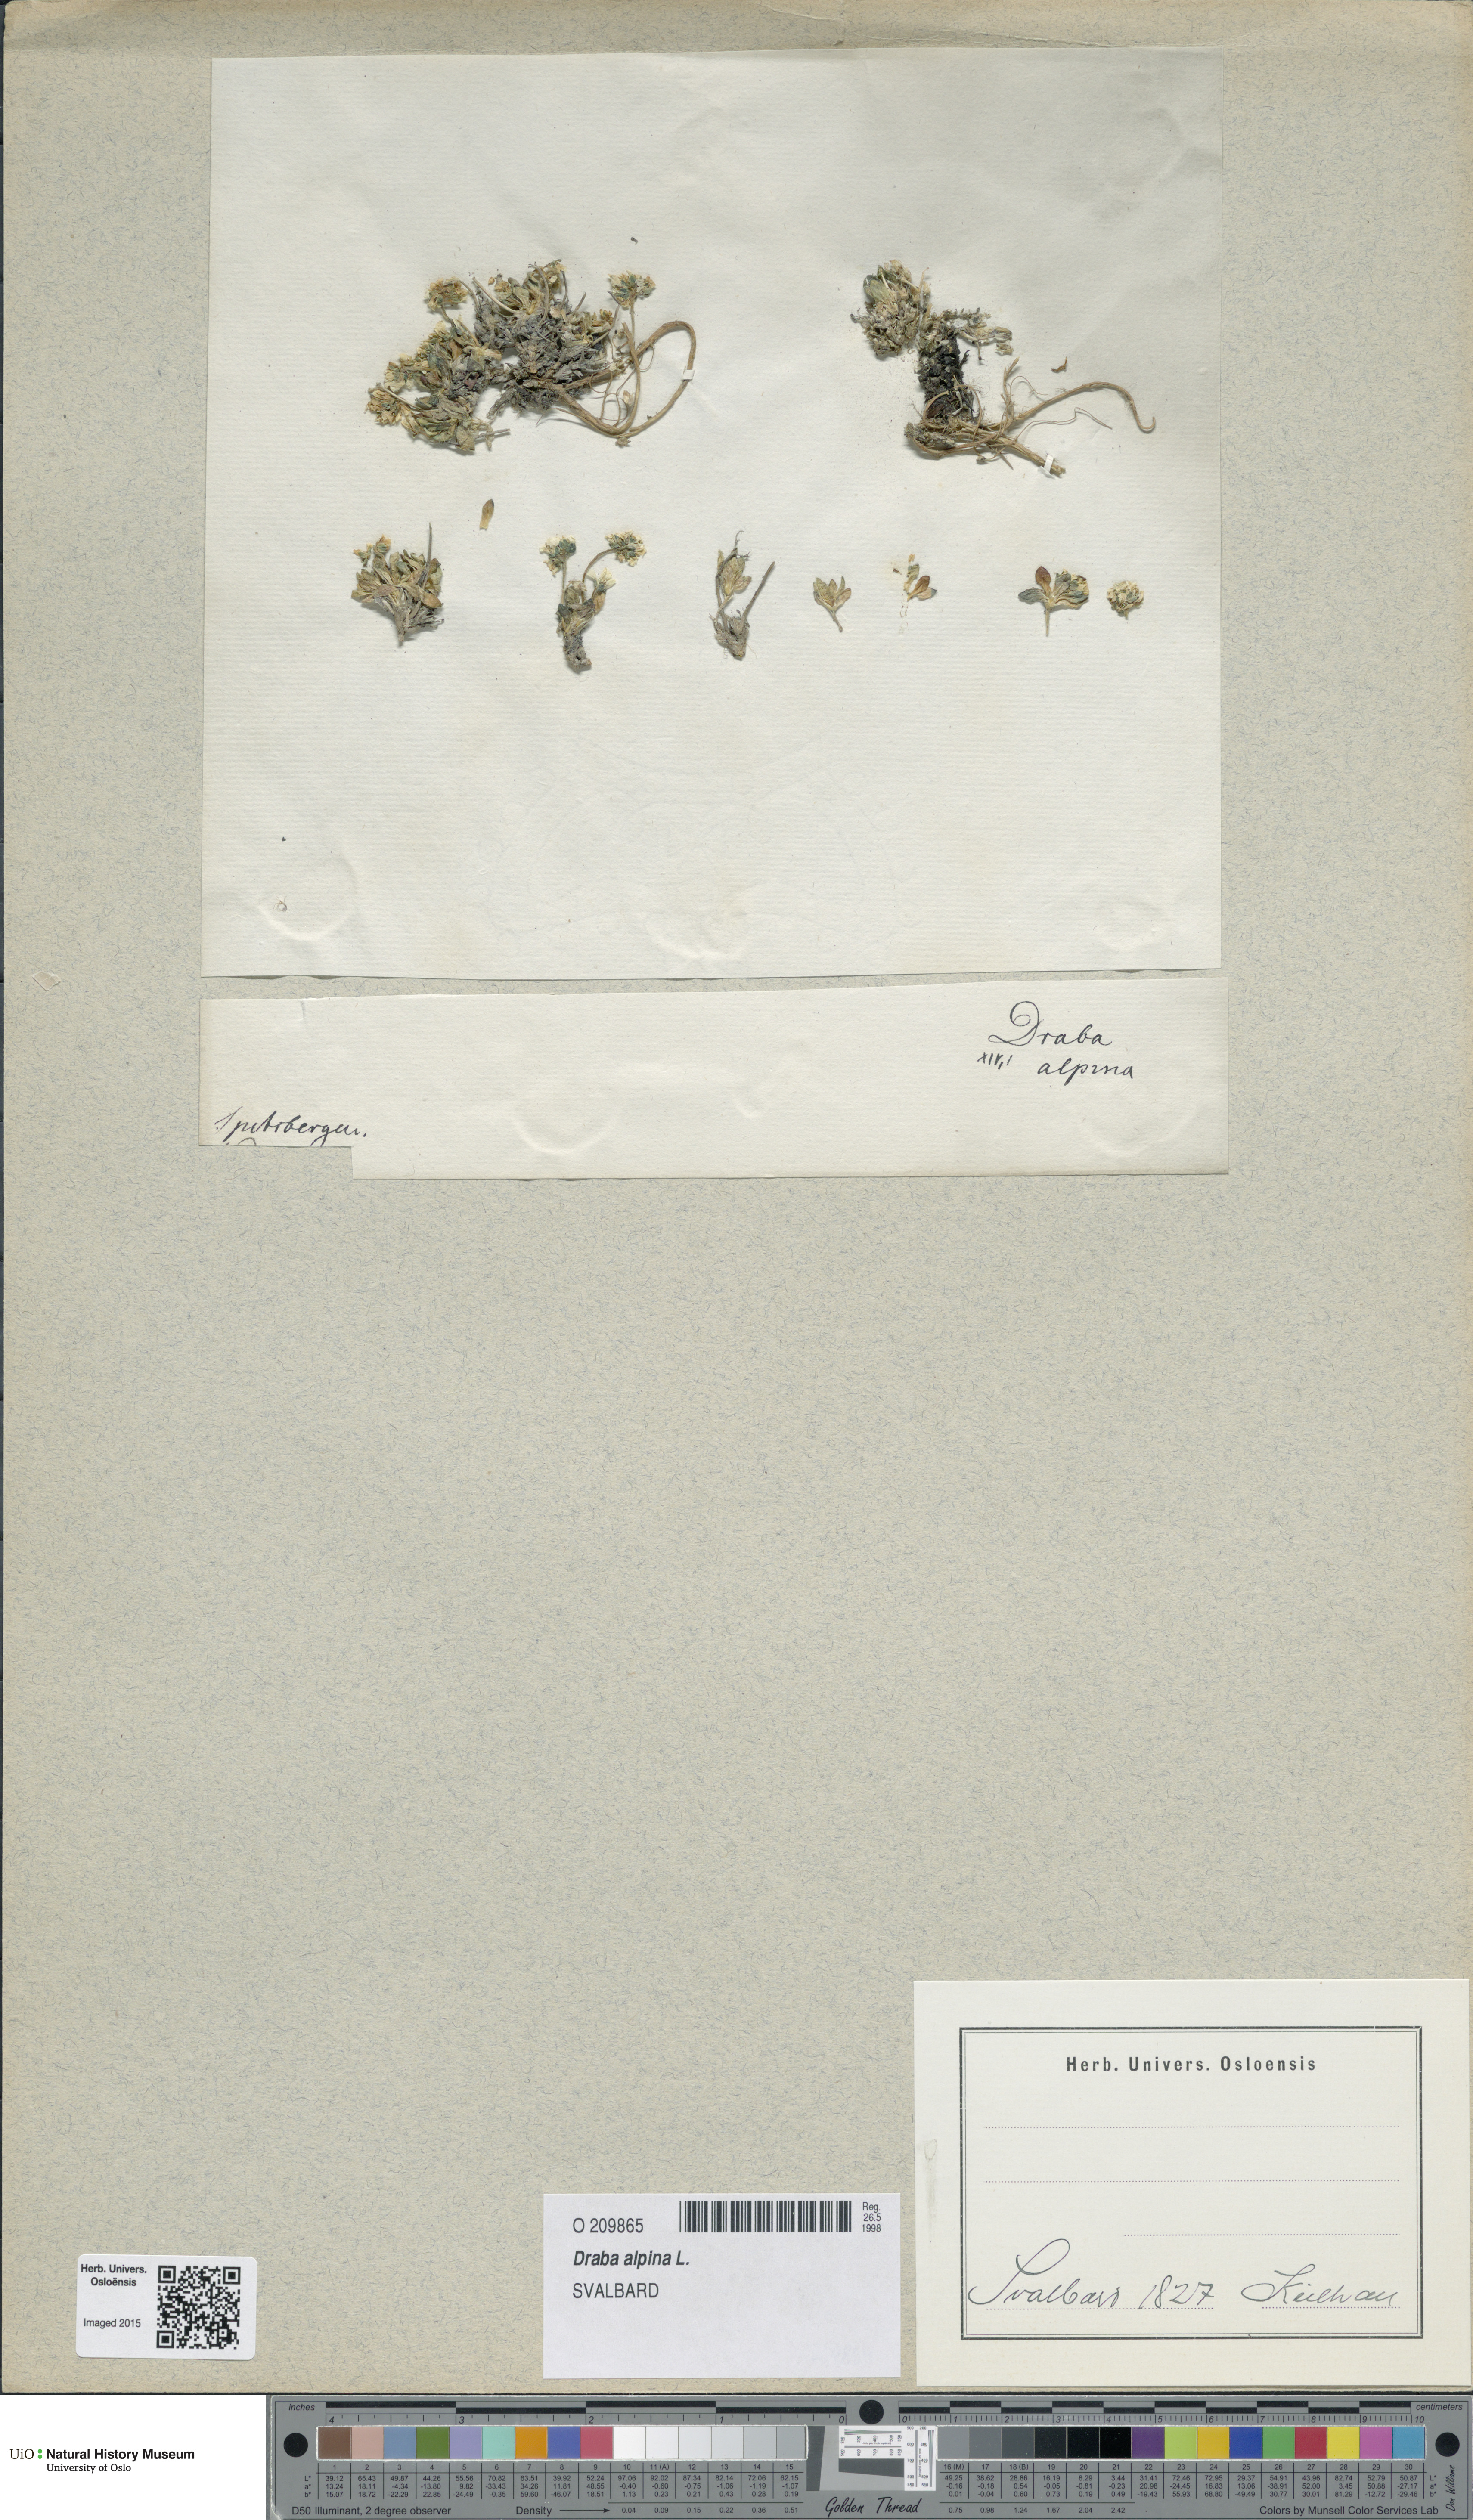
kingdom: Plantae
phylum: Tracheophyta
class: Magnoliopsida
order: Brassicales
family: Brassicaceae
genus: Draba
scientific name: Draba alpina
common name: Alpine draba
